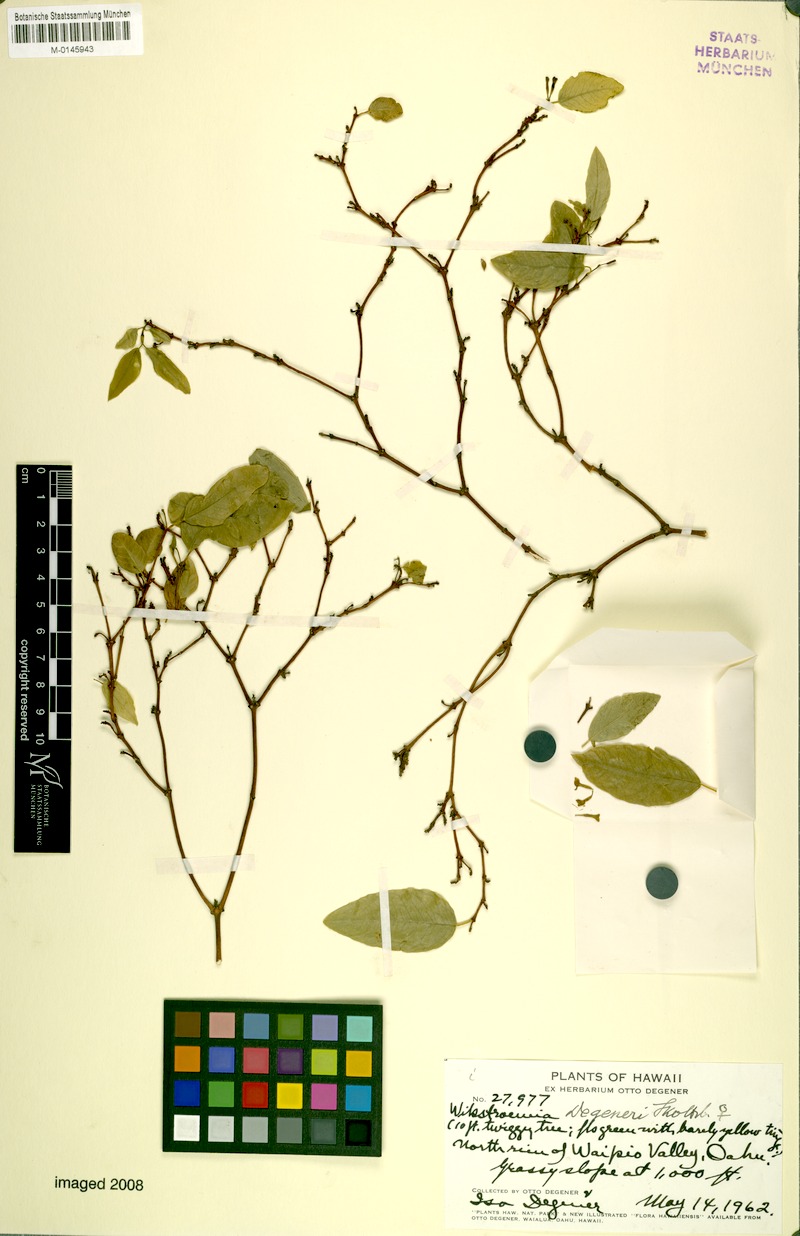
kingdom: Plantae
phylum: Tracheophyta
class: Magnoliopsida
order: Malvales
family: Thymelaeaceae
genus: Wikstroemia
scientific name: Wikstroemia oahuensis
